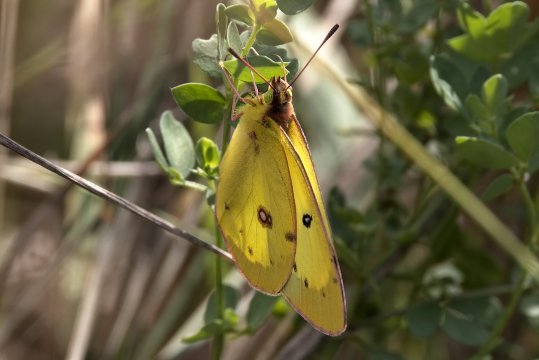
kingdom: Animalia
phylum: Arthropoda
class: Insecta
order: Lepidoptera
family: Pieridae
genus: Colias
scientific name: Colias philodice
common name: Clouded Sulphur
